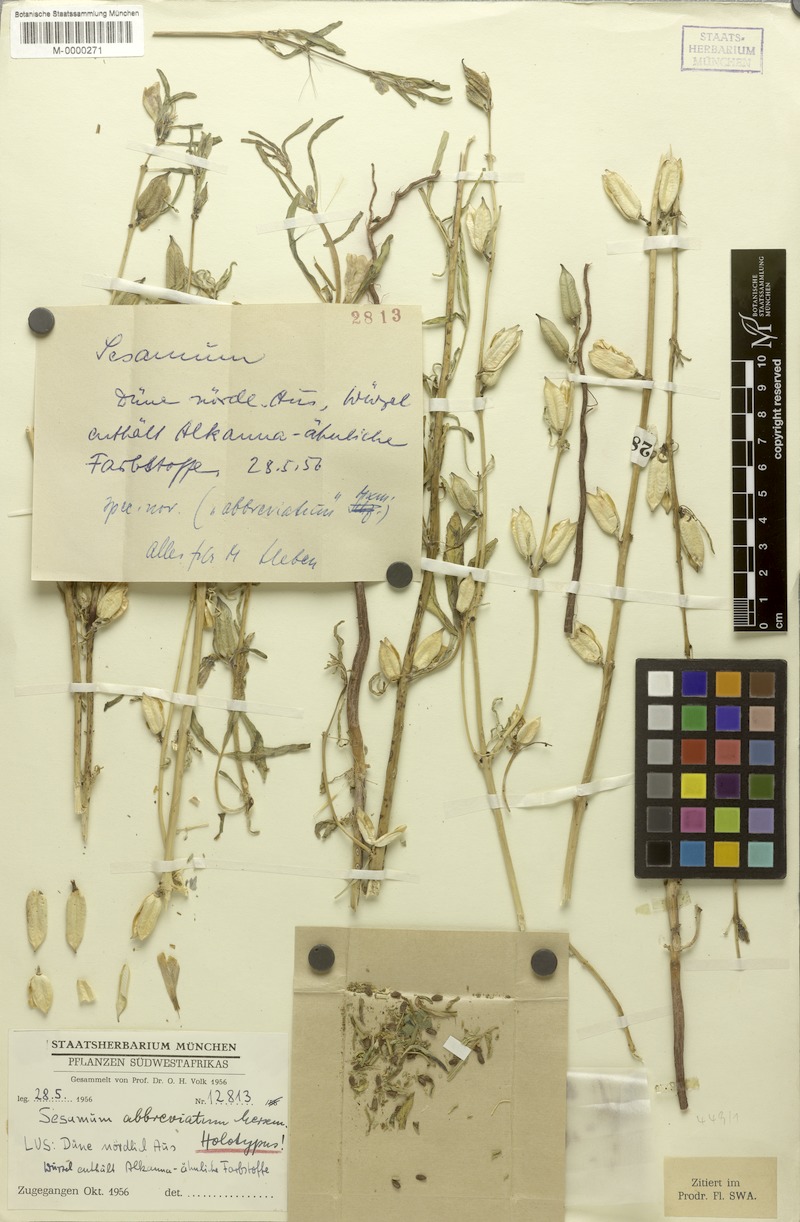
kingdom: Plantae
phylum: Tracheophyta
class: Magnoliopsida
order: Lamiales
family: Pedaliaceae
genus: Sesamum
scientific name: Sesamum angustifolium
